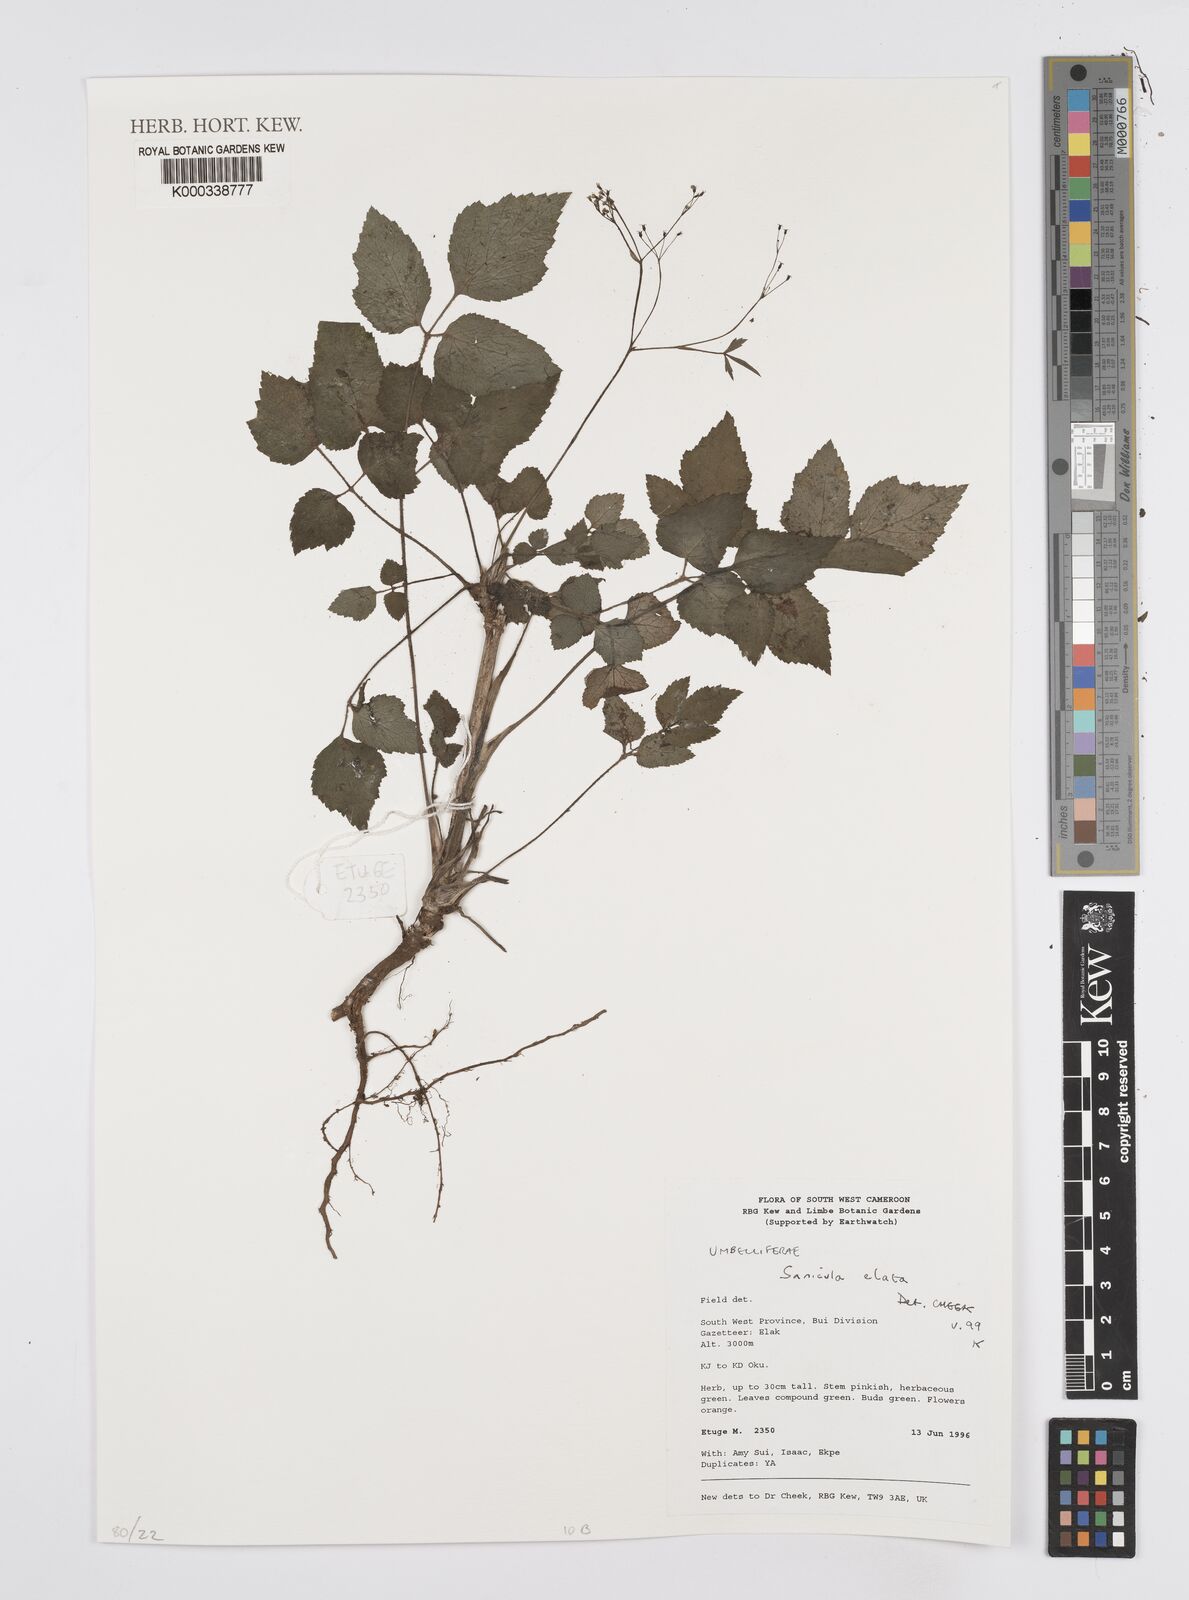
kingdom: Plantae
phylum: Tracheophyta
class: Magnoliopsida
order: Apiales
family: Apiaceae
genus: Sanicula
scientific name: Sanicula
